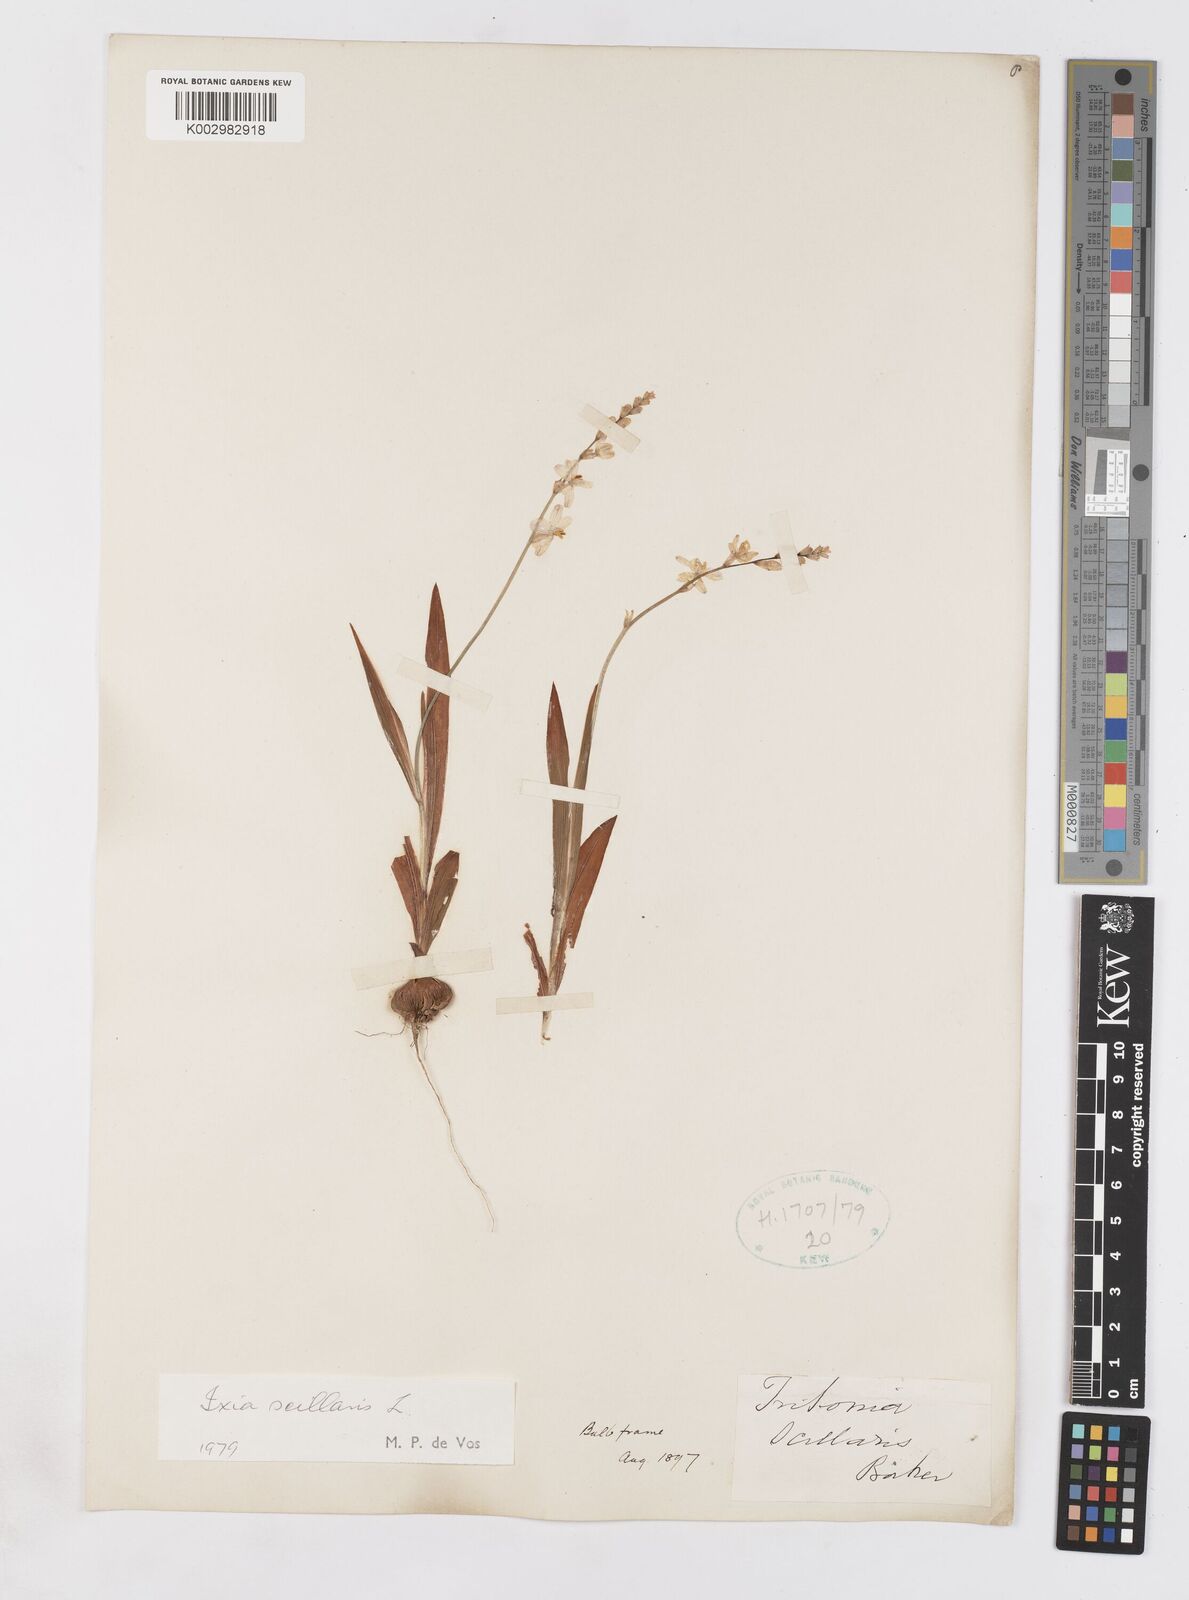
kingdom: Plantae
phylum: Tracheophyta
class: Liliopsida
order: Asparagales
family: Iridaceae
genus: Ixia
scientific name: Ixia scillaris
